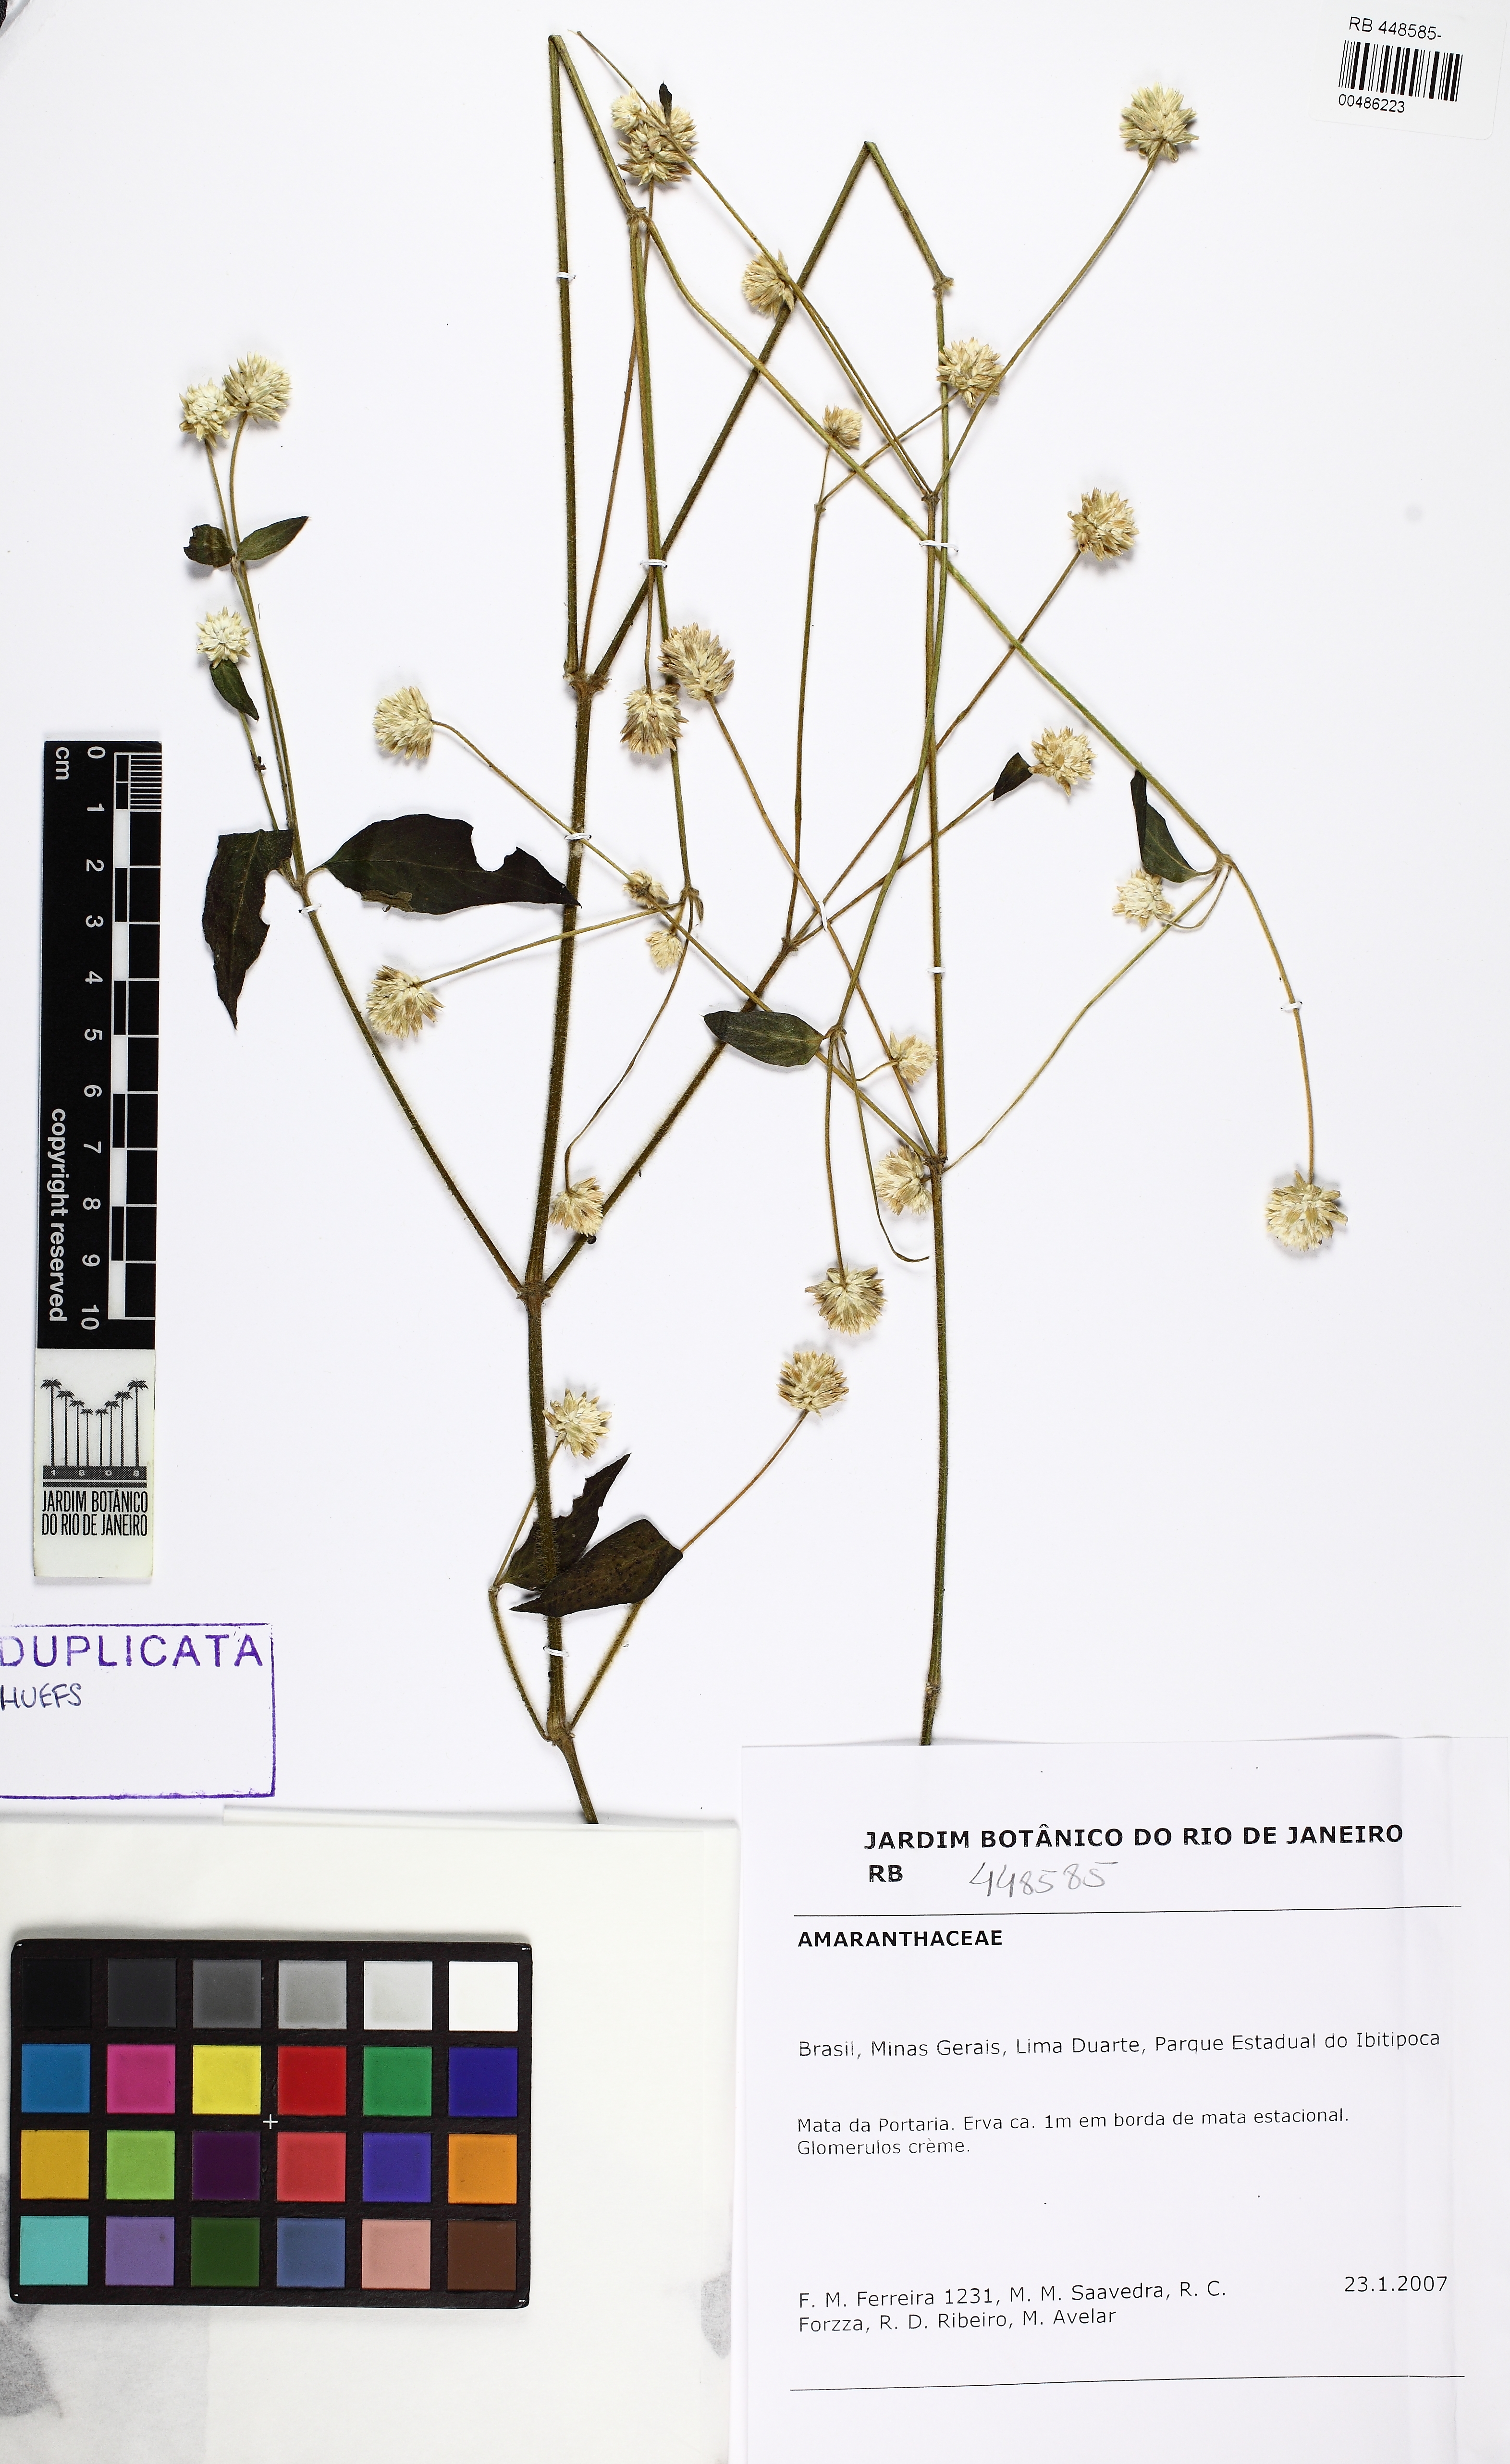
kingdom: Plantae
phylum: Tracheophyta
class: Magnoliopsida
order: Caryophyllales
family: Amaranthaceae
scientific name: Amaranthaceae
